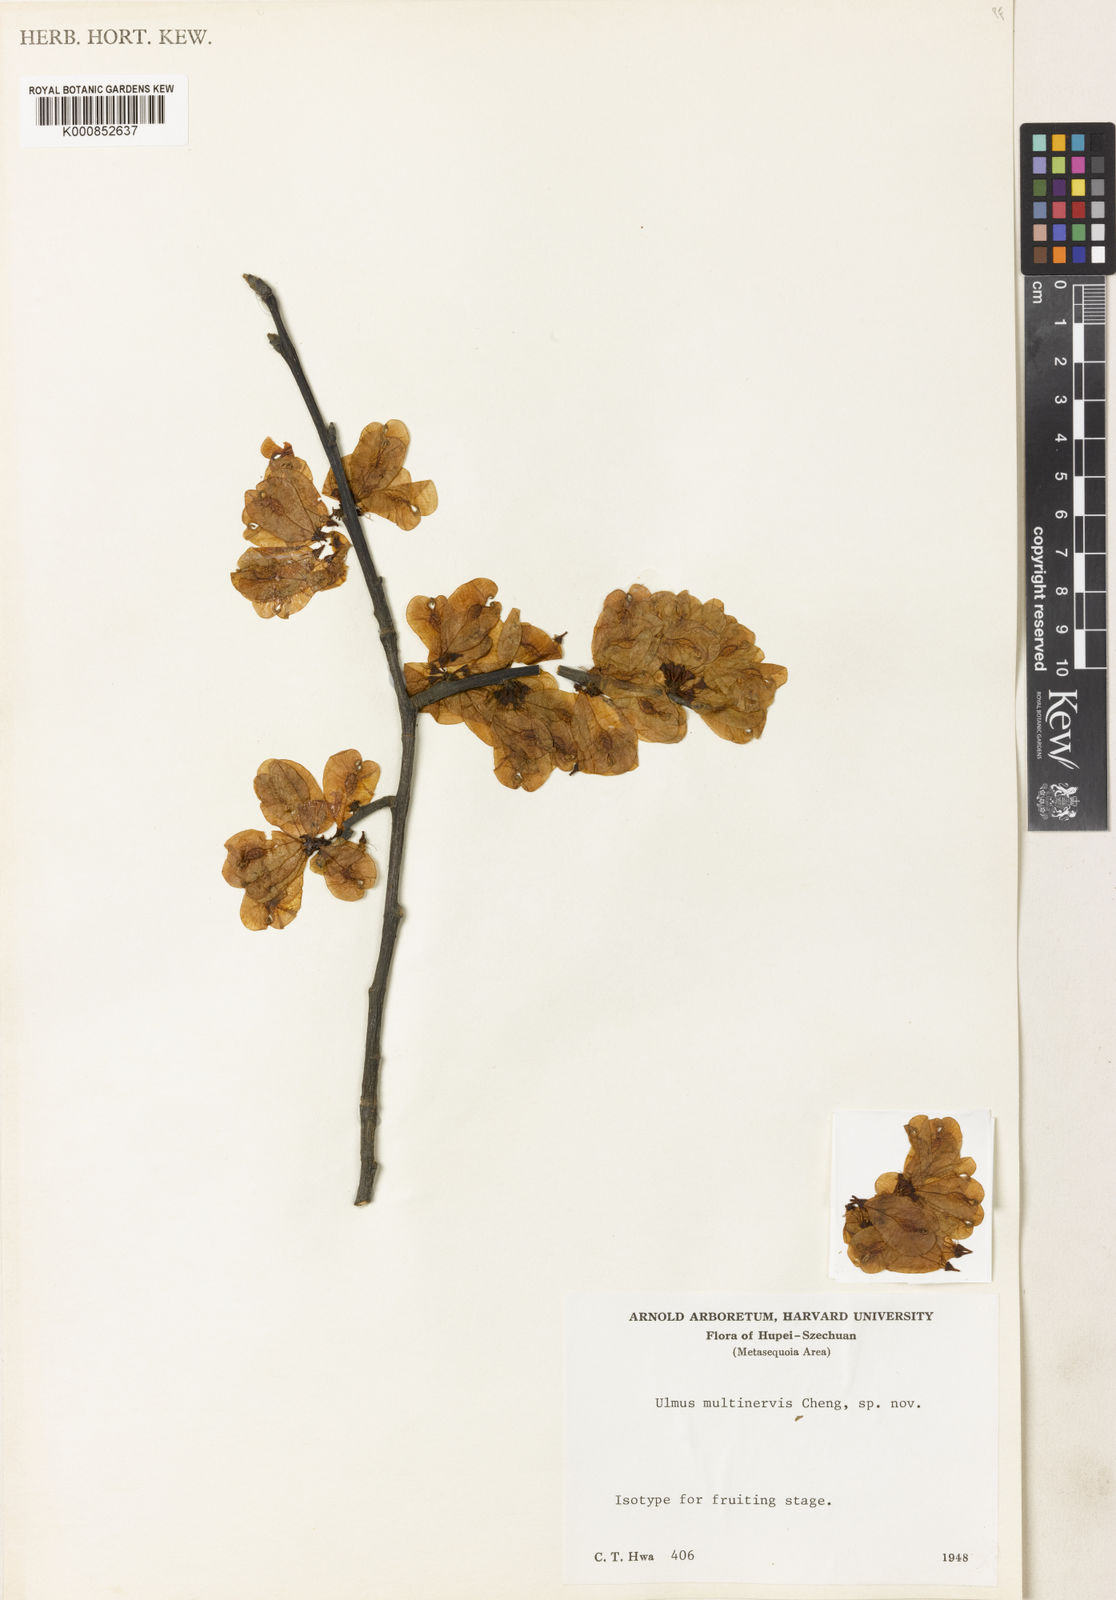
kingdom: Plantae
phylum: Tracheophyta
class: Magnoliopsida
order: Rosales
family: Ulmaceae
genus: Ulmus
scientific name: Ulmus castaneifolia
